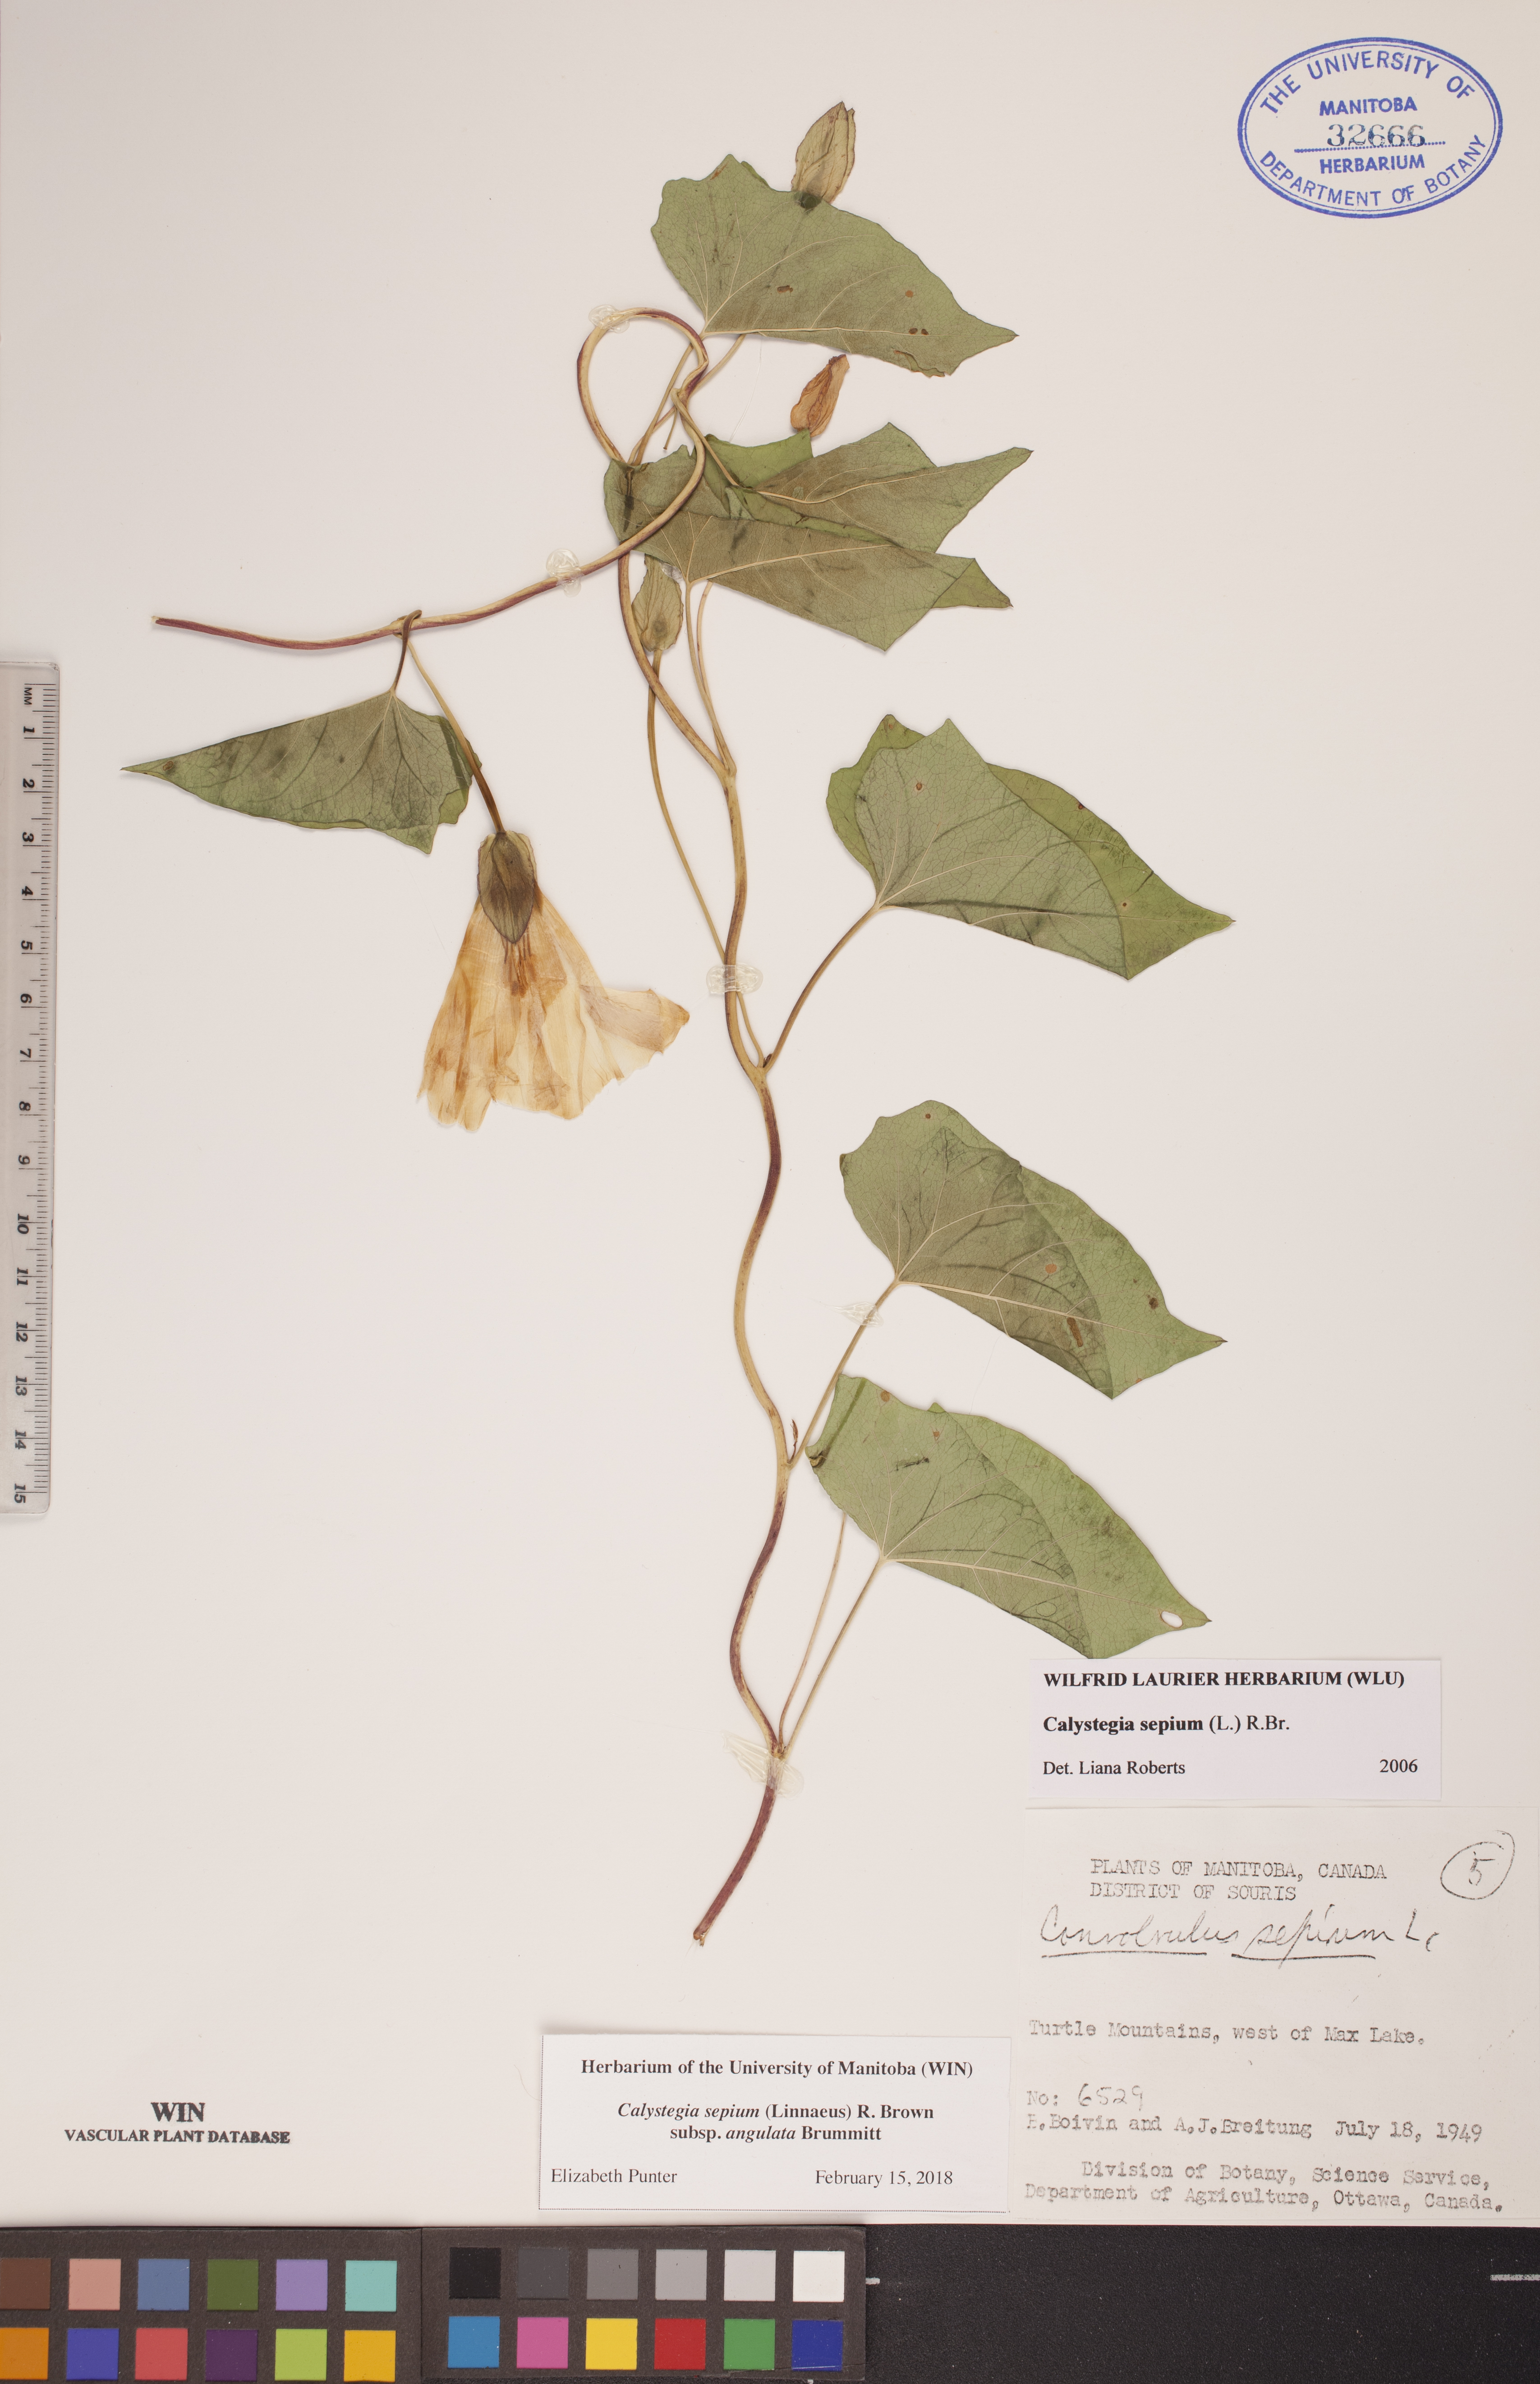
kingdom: Plantae
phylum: Tracheophyta
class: Magnoliopsida
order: Solanales
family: Convolvulaceae
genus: Calystegia
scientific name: Calystegia sepium
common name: Hedge bindweed
